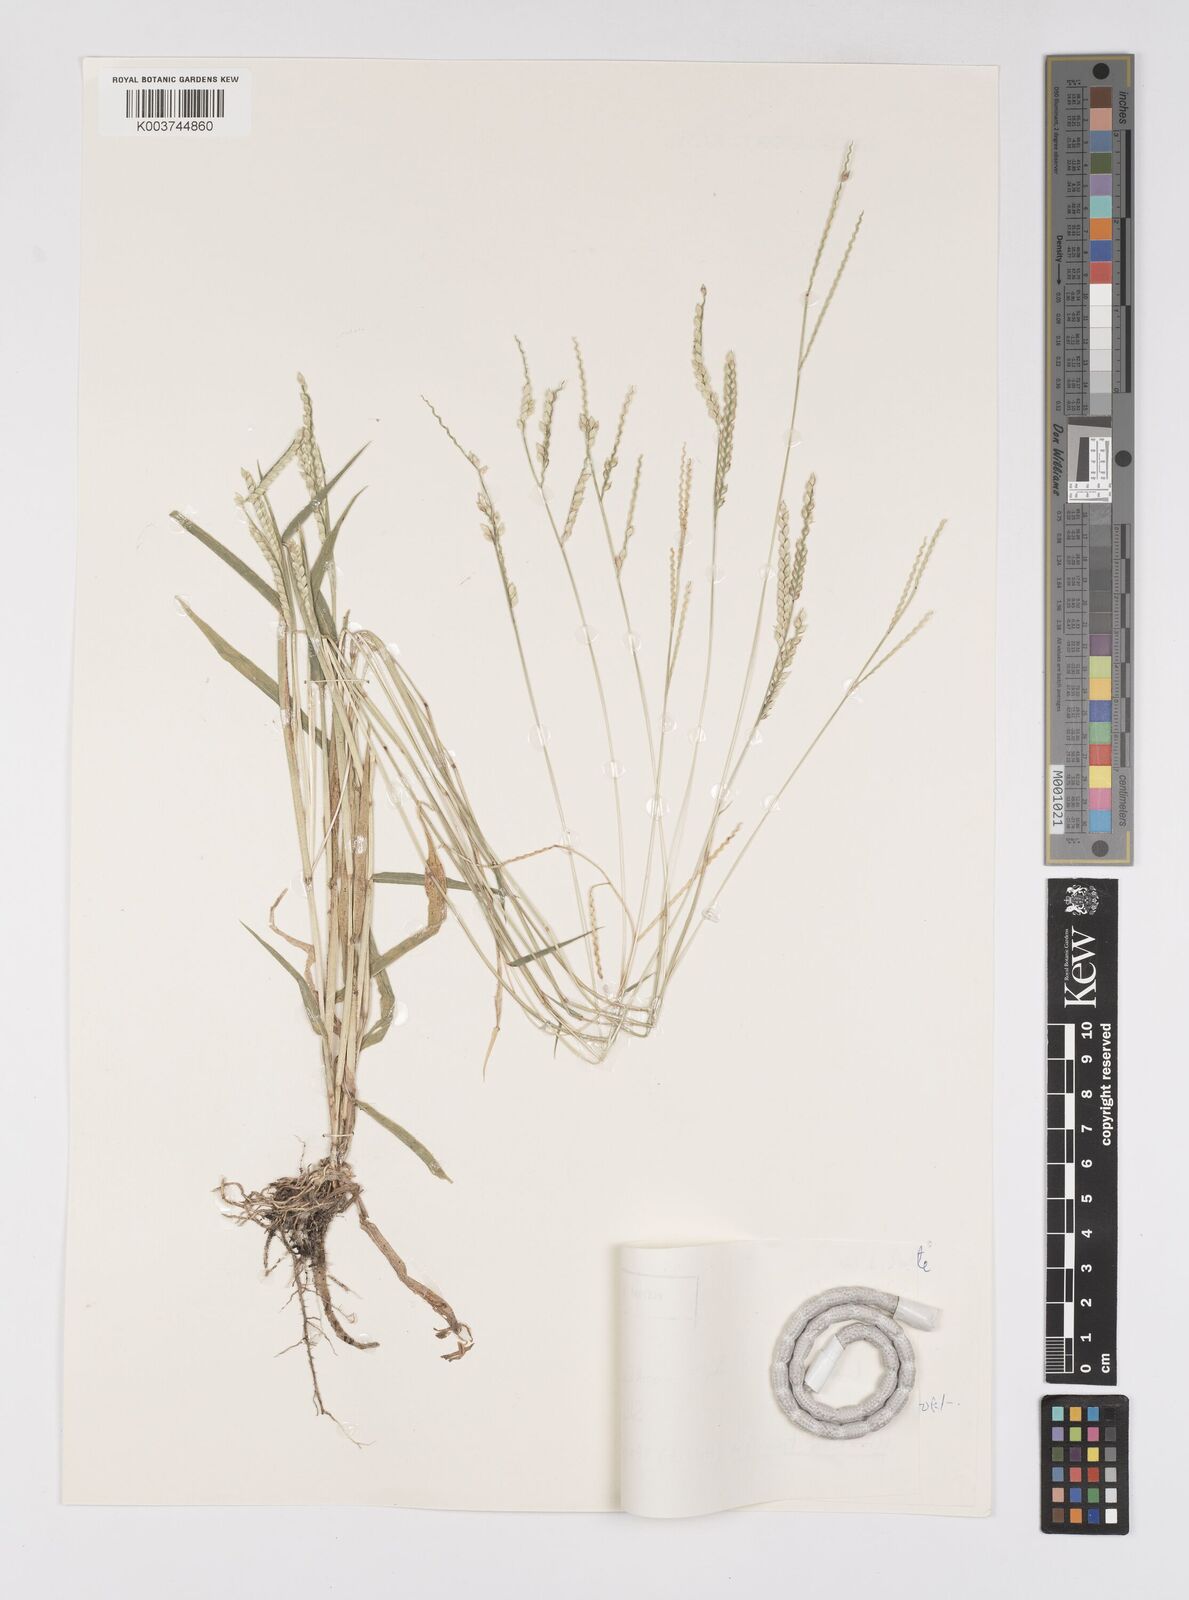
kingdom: Plantae
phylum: Tracheophyta
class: Liliopsida
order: Poales
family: Poaceae
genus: Urochloa
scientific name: Urochloa trichopus
